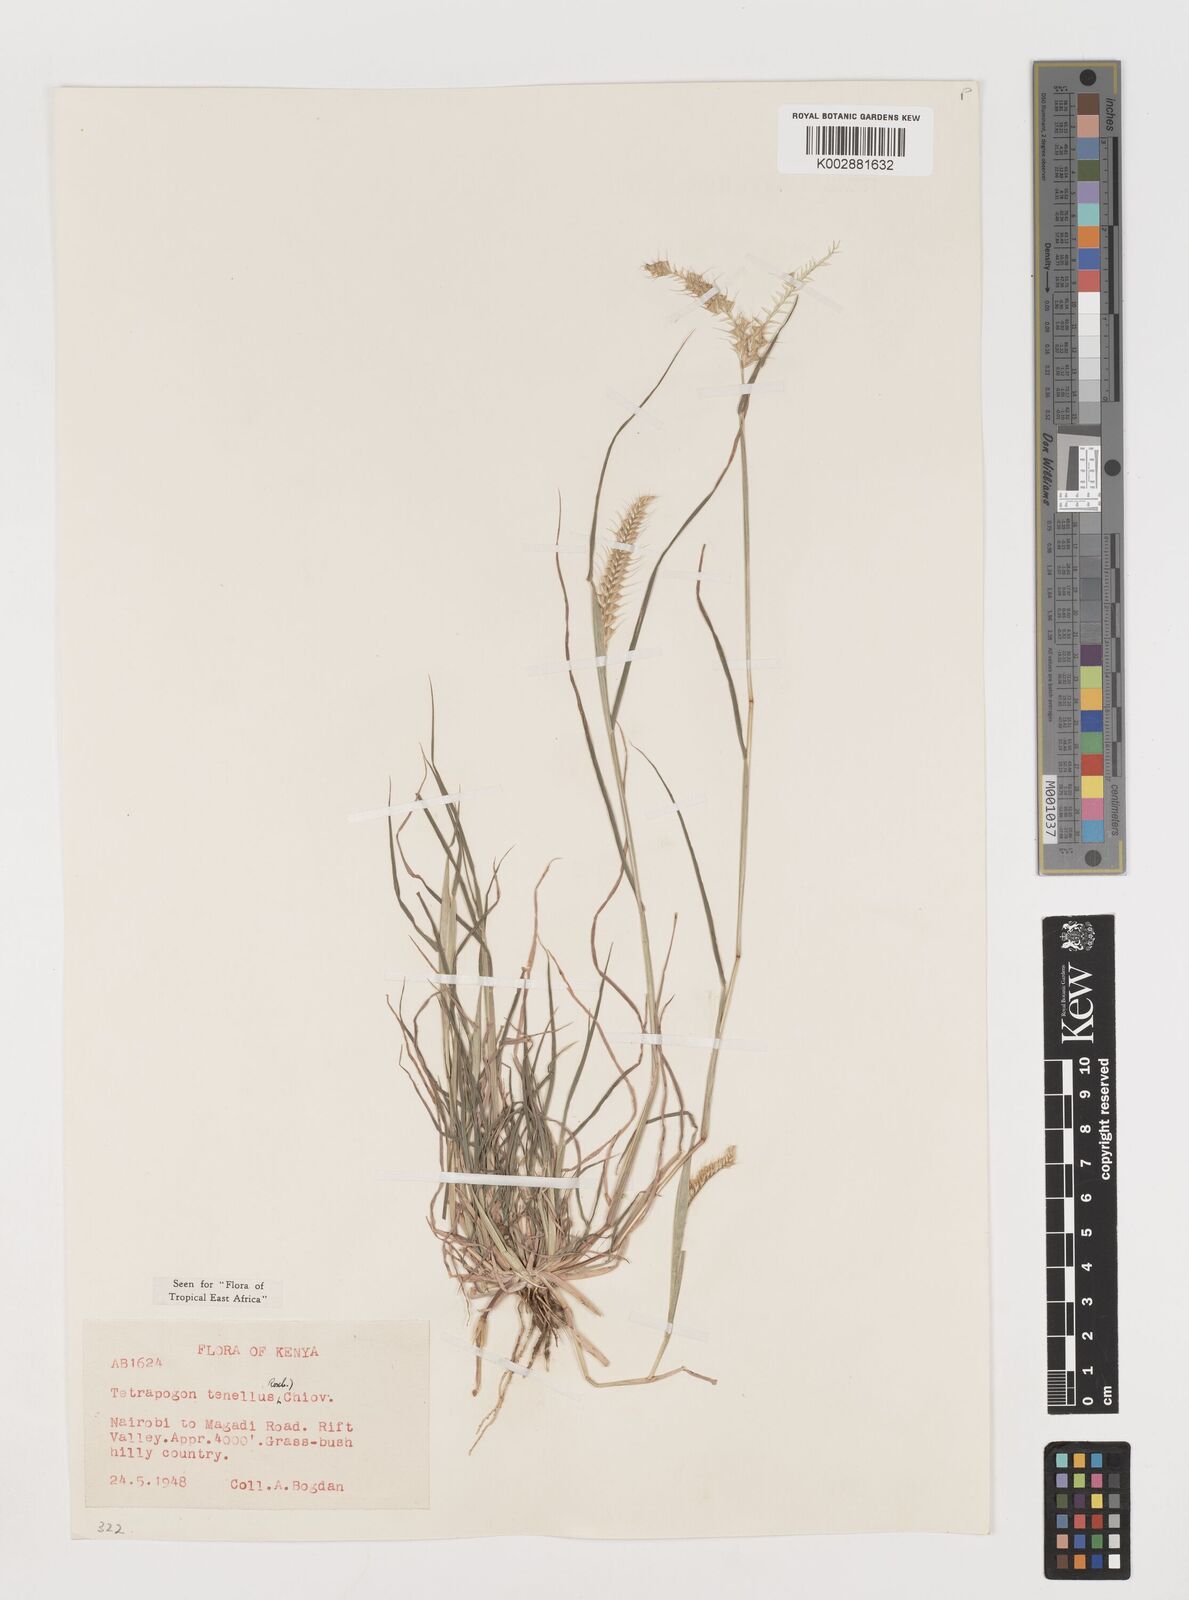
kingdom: Plantae
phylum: Tracheophyta
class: Liliopsida
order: Poales
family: Poaceae
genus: Tetrapogon
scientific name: Tetrapogon tenellus
